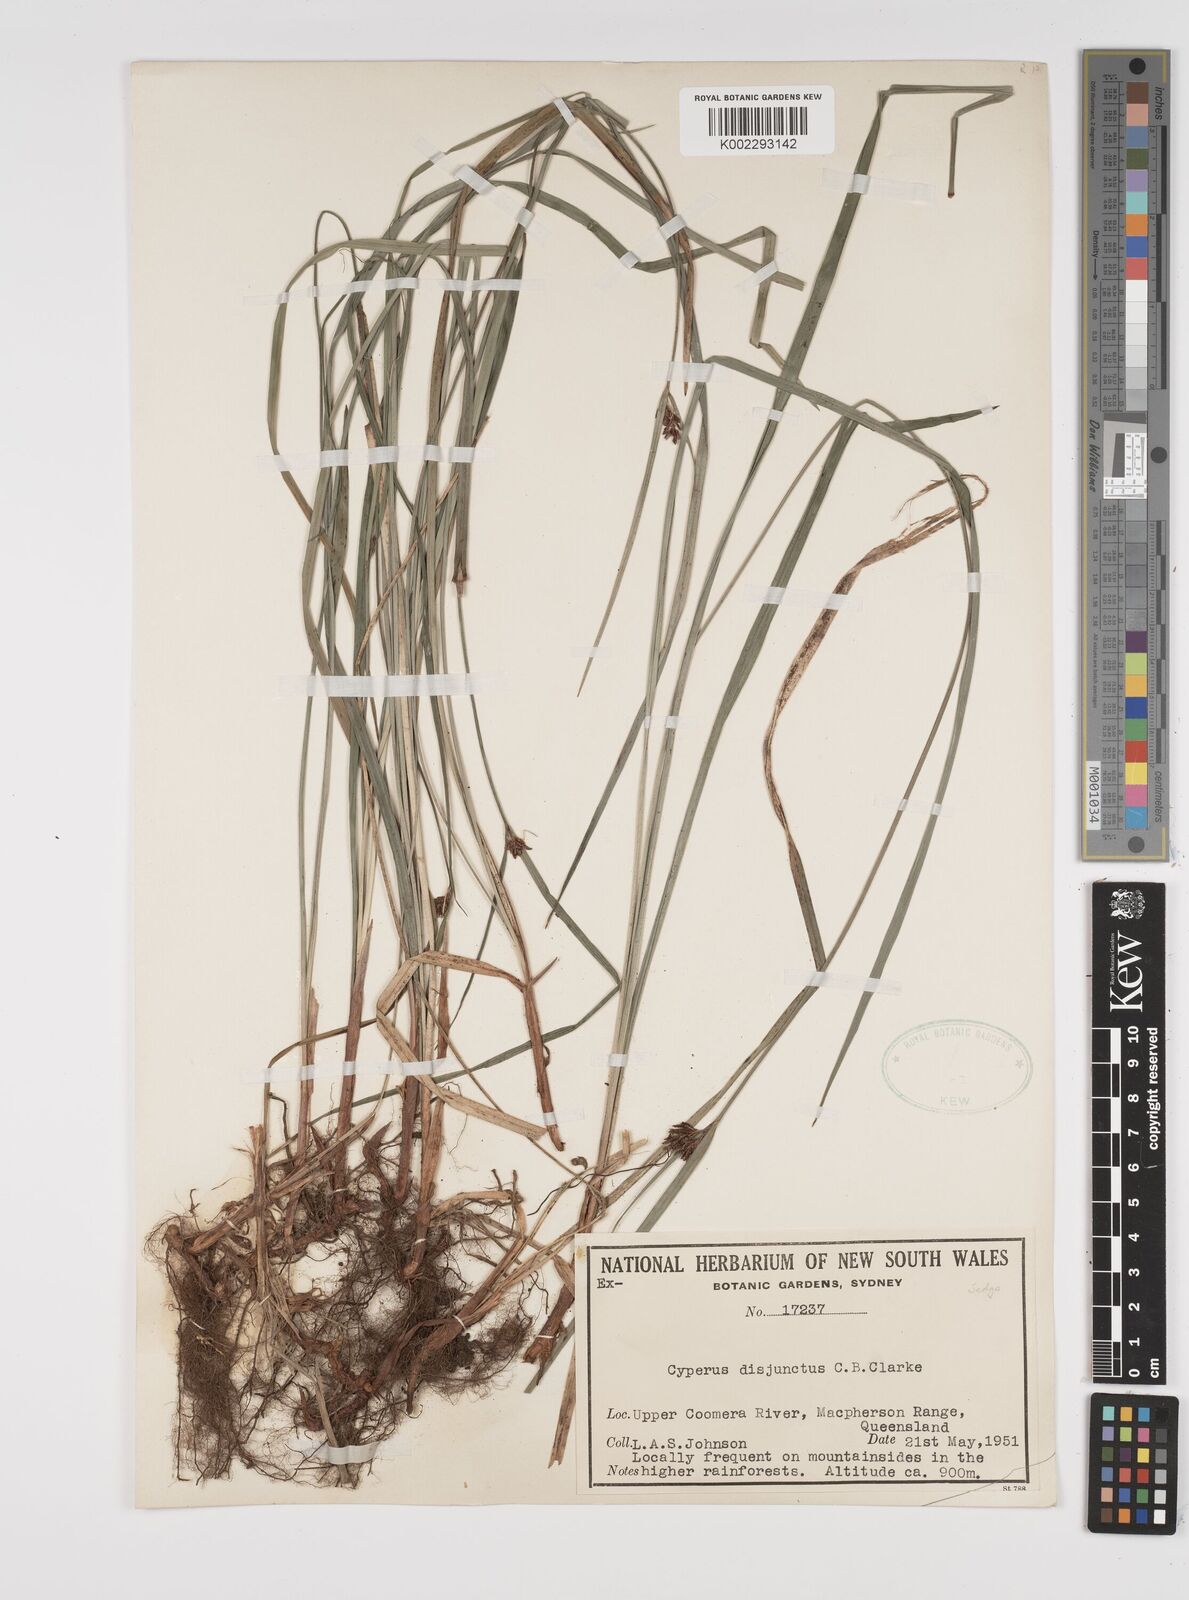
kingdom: Plantae
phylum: Tracheophyta
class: Liliopsida
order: Poales
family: Cyperaceae
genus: Cyperus
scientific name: Cyperus disjunctus
